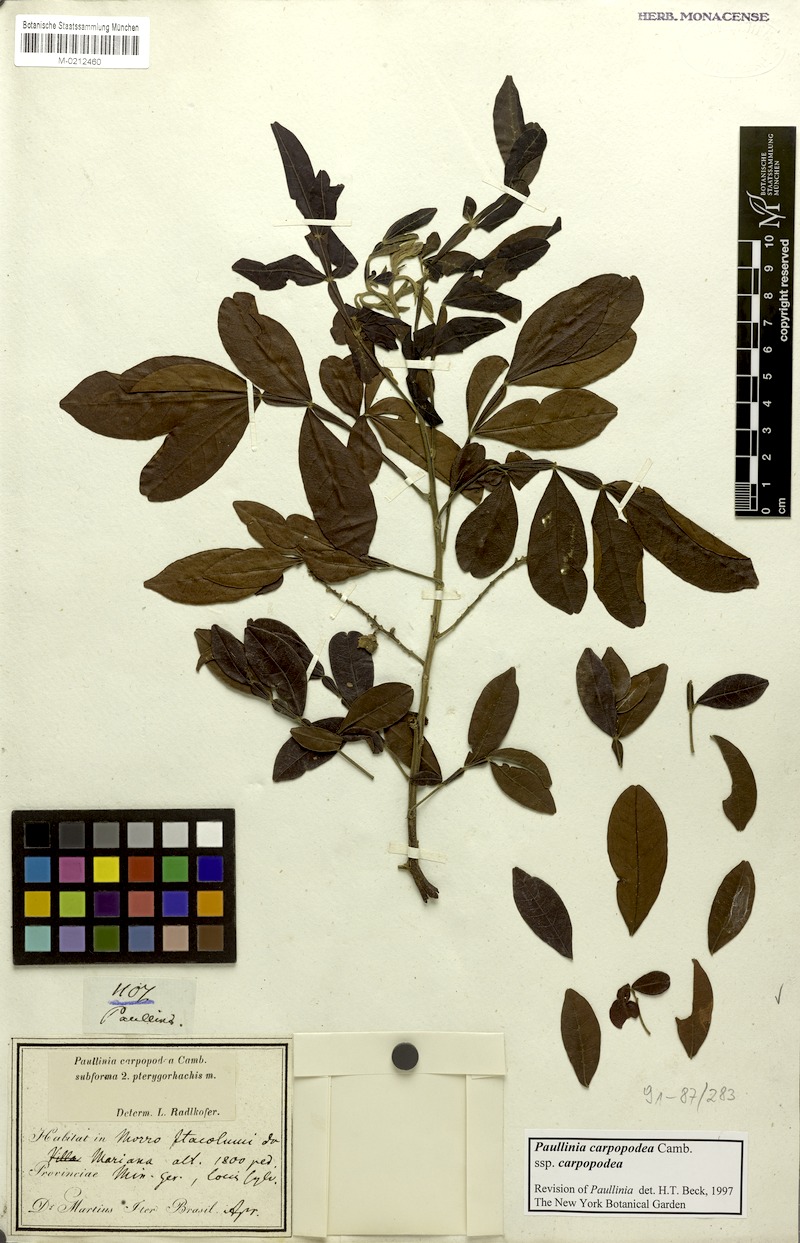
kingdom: Plantae
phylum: Tracheophyta
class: Magnoliopsida
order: Sapindales
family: Sapindaceae
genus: Paullinia
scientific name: Paullinia carpopoda
